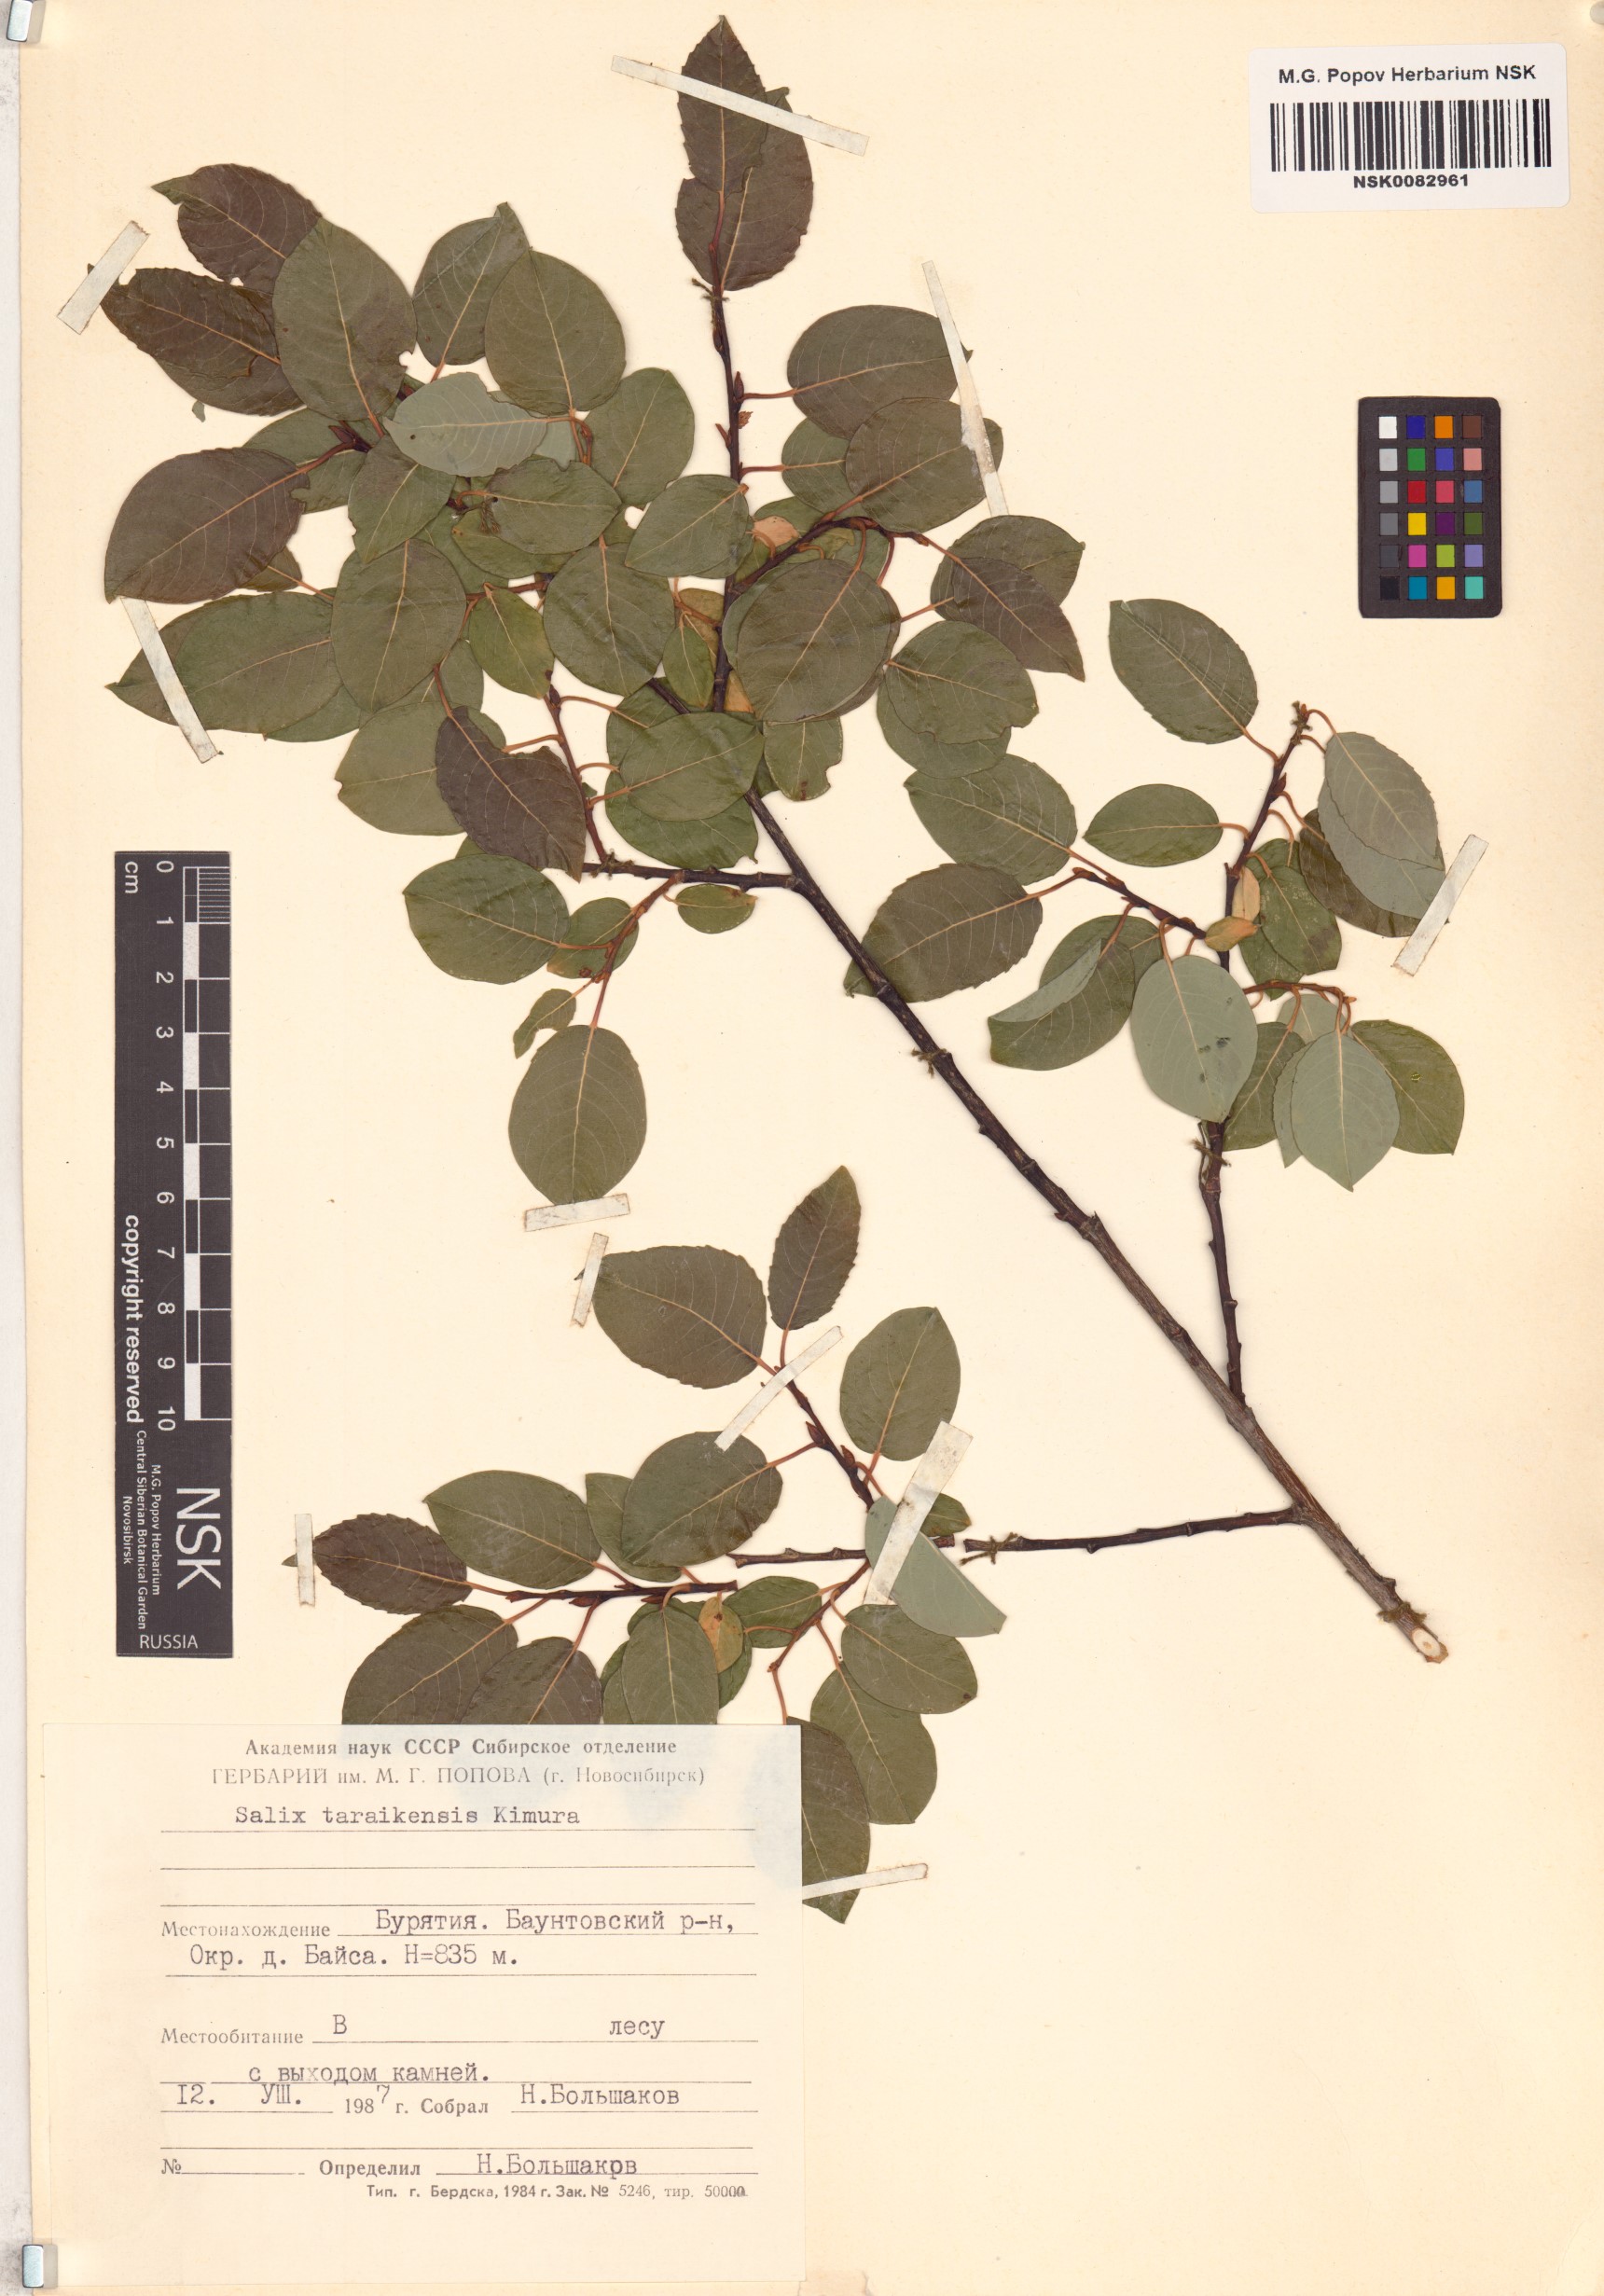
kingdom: Plantae
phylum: Tracheophyta
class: Magnoliopsida
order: Malpighiales
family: Salicaceae
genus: Salix
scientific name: Salix taraikensis
